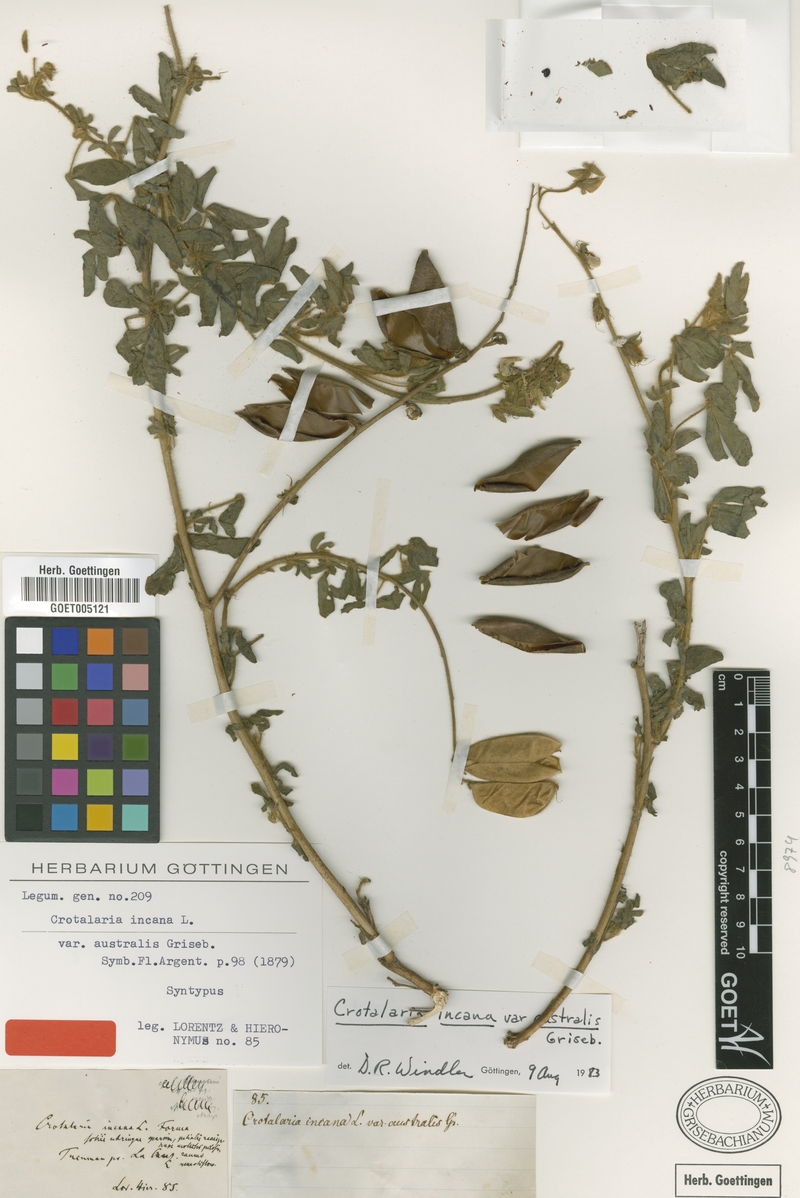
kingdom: Plantae
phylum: Tracheophyta
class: Magnoliopsida
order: Fabales
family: Fabaceae
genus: Crotalaria
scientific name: Crotalaria chaco-serranensis
